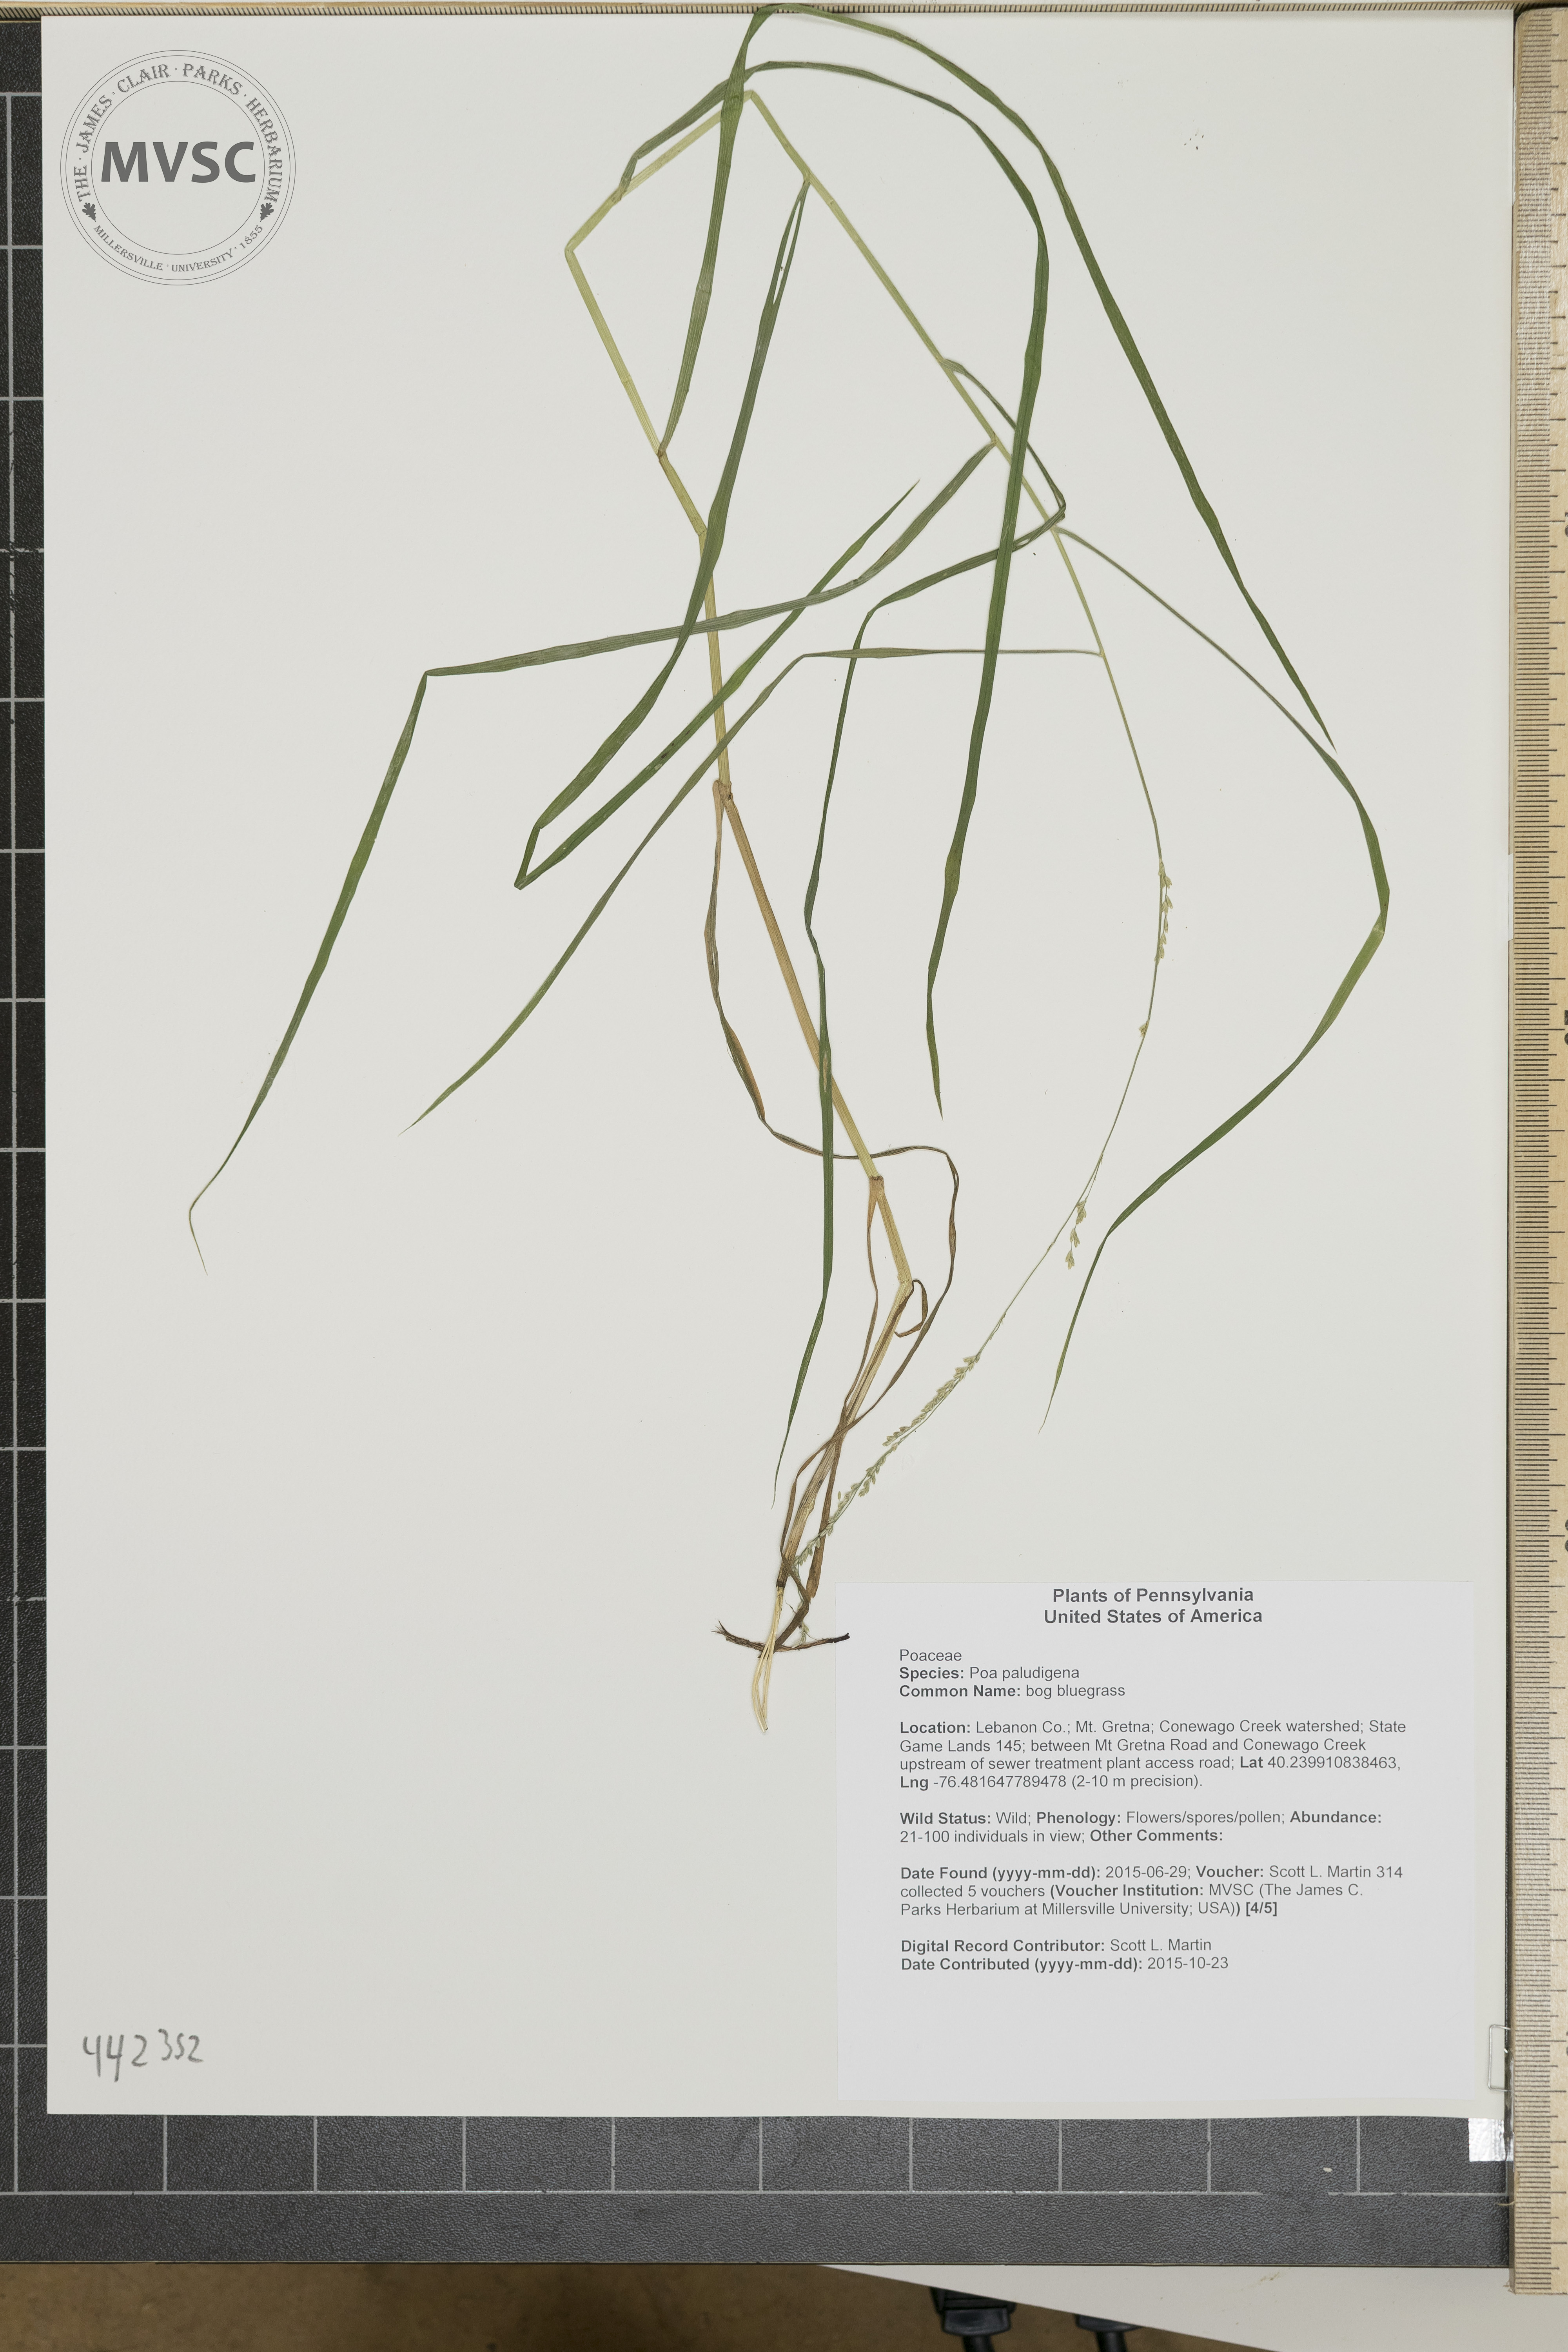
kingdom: Plantae
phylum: Tracheophyta
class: Liliopsida
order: Poales
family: Poaceae
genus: Glyceria
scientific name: Glyceria striata
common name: Fowl manna grass
